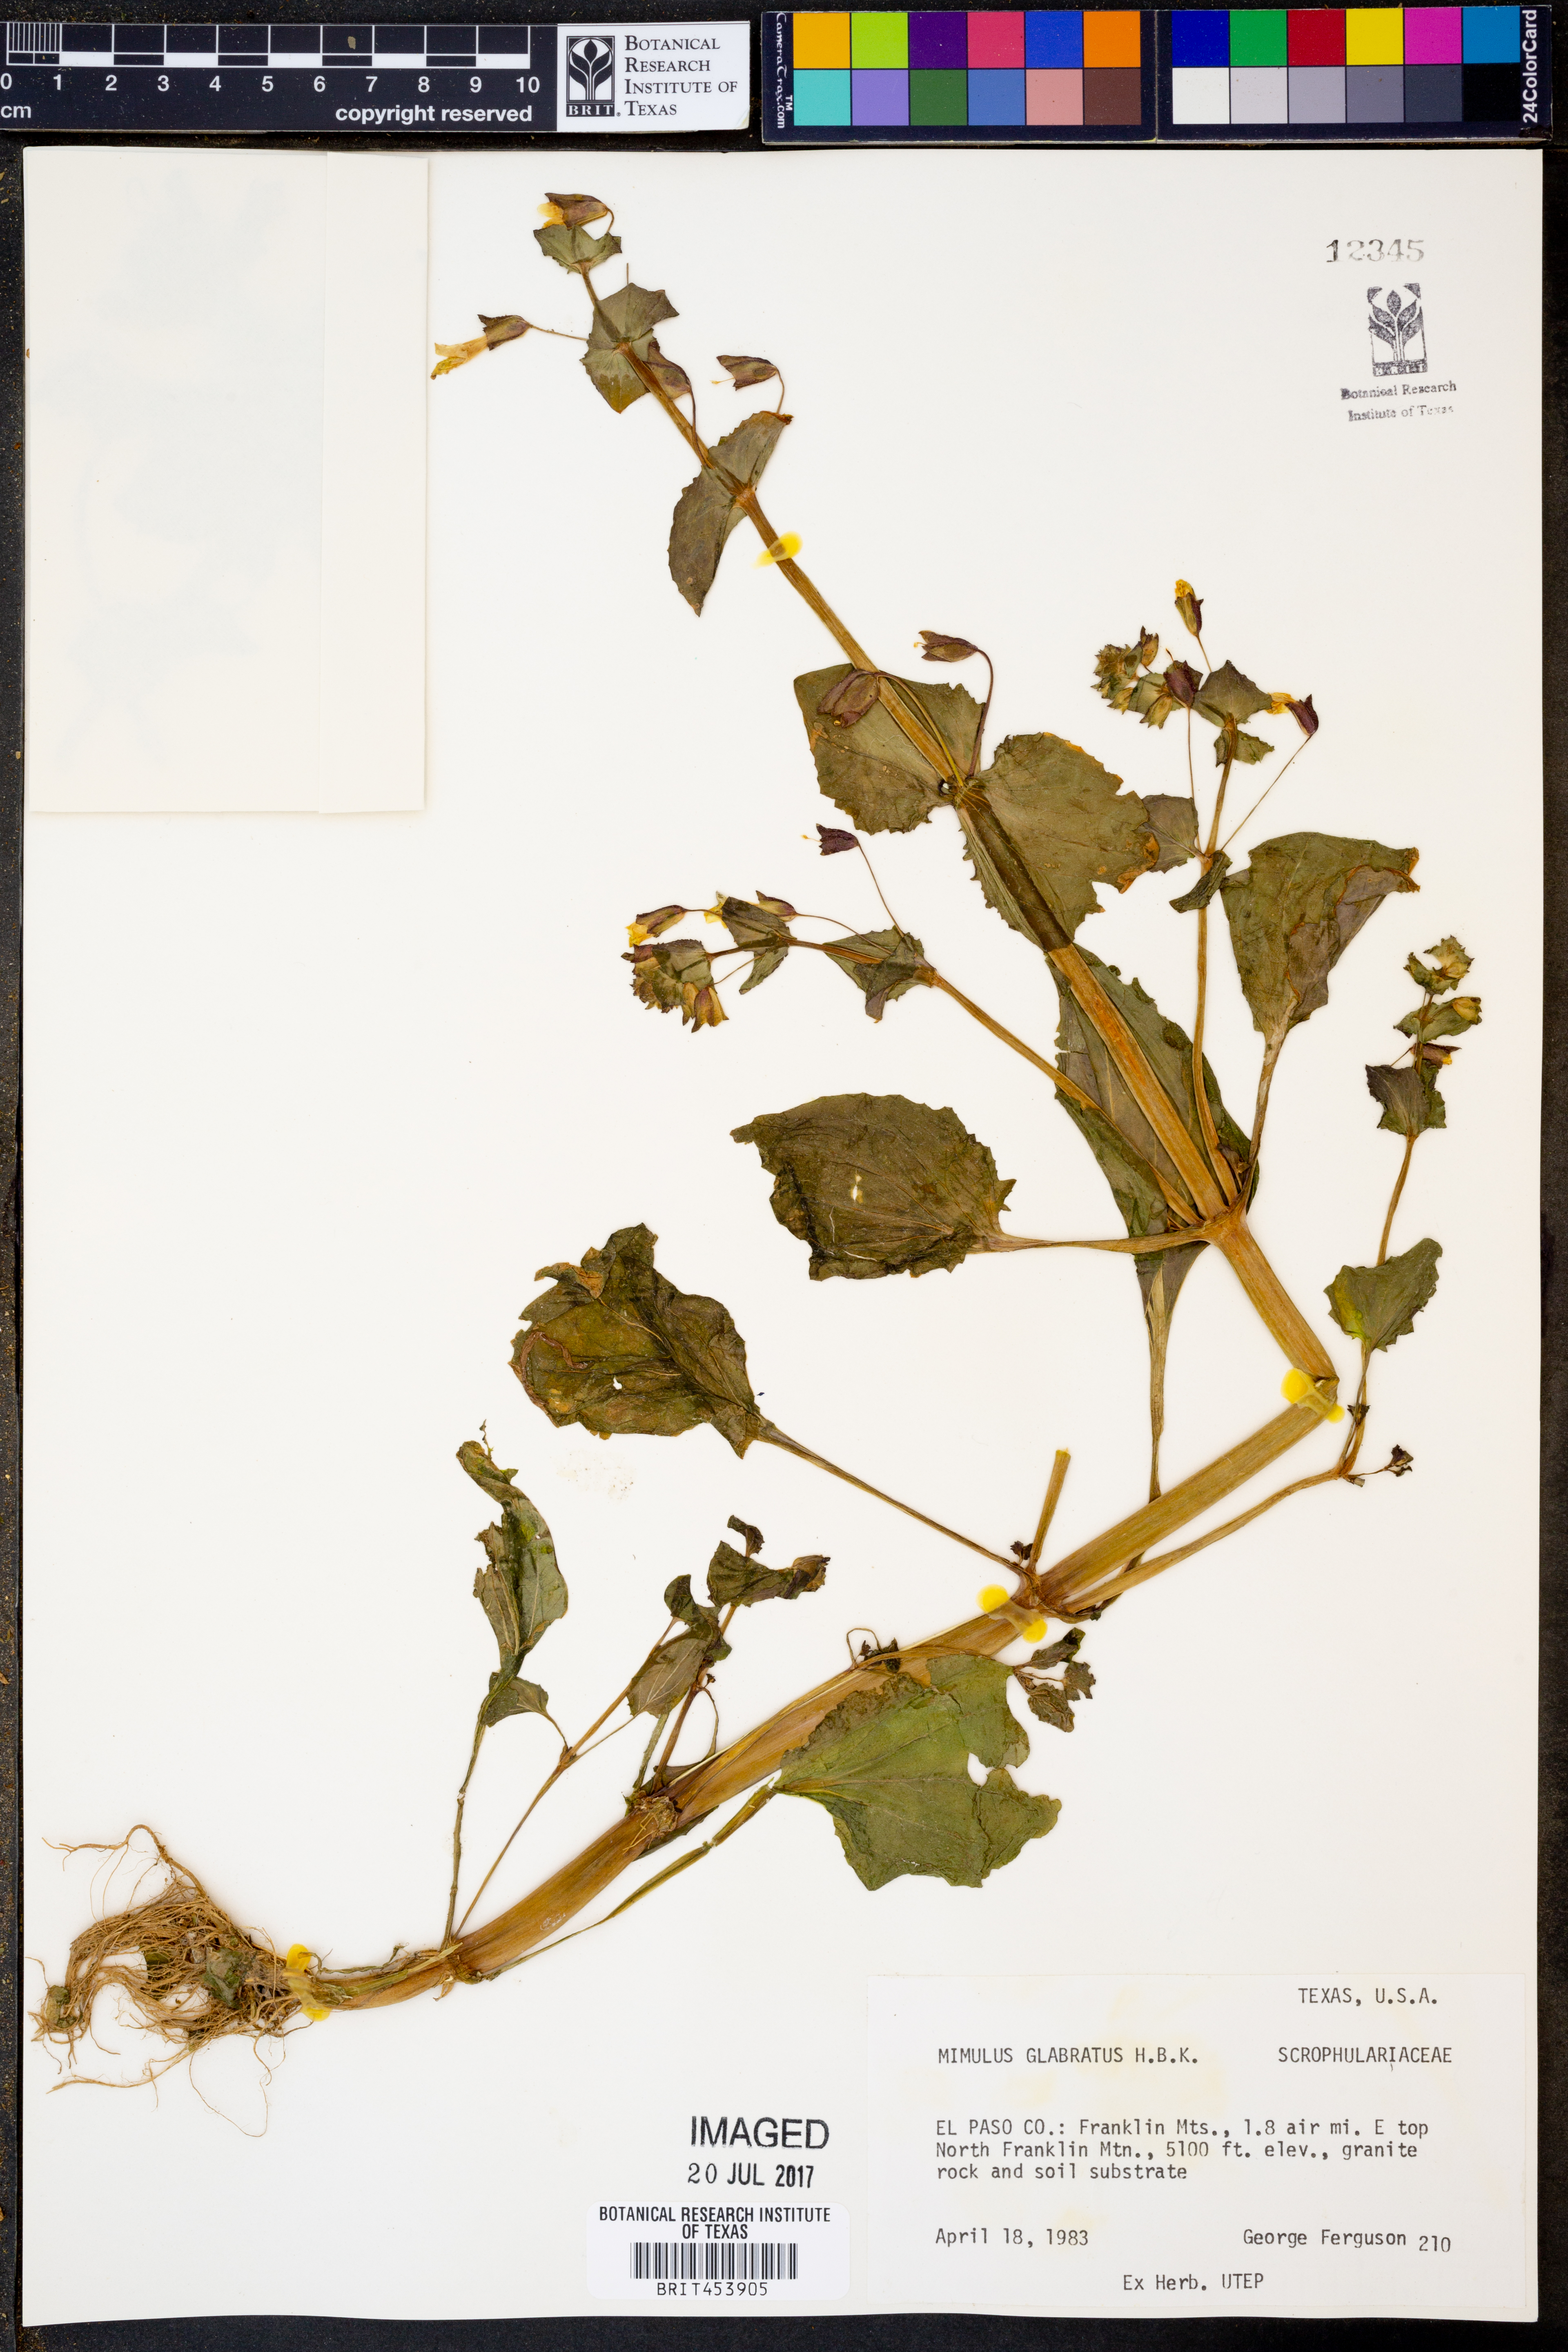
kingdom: Plantae
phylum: Tracheophyta
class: Magnoliopsida
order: Lamiales
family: Phrymaceae
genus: Erythranthe
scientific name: Erythranthe glabrata
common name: Round-leaved monkeyflower
